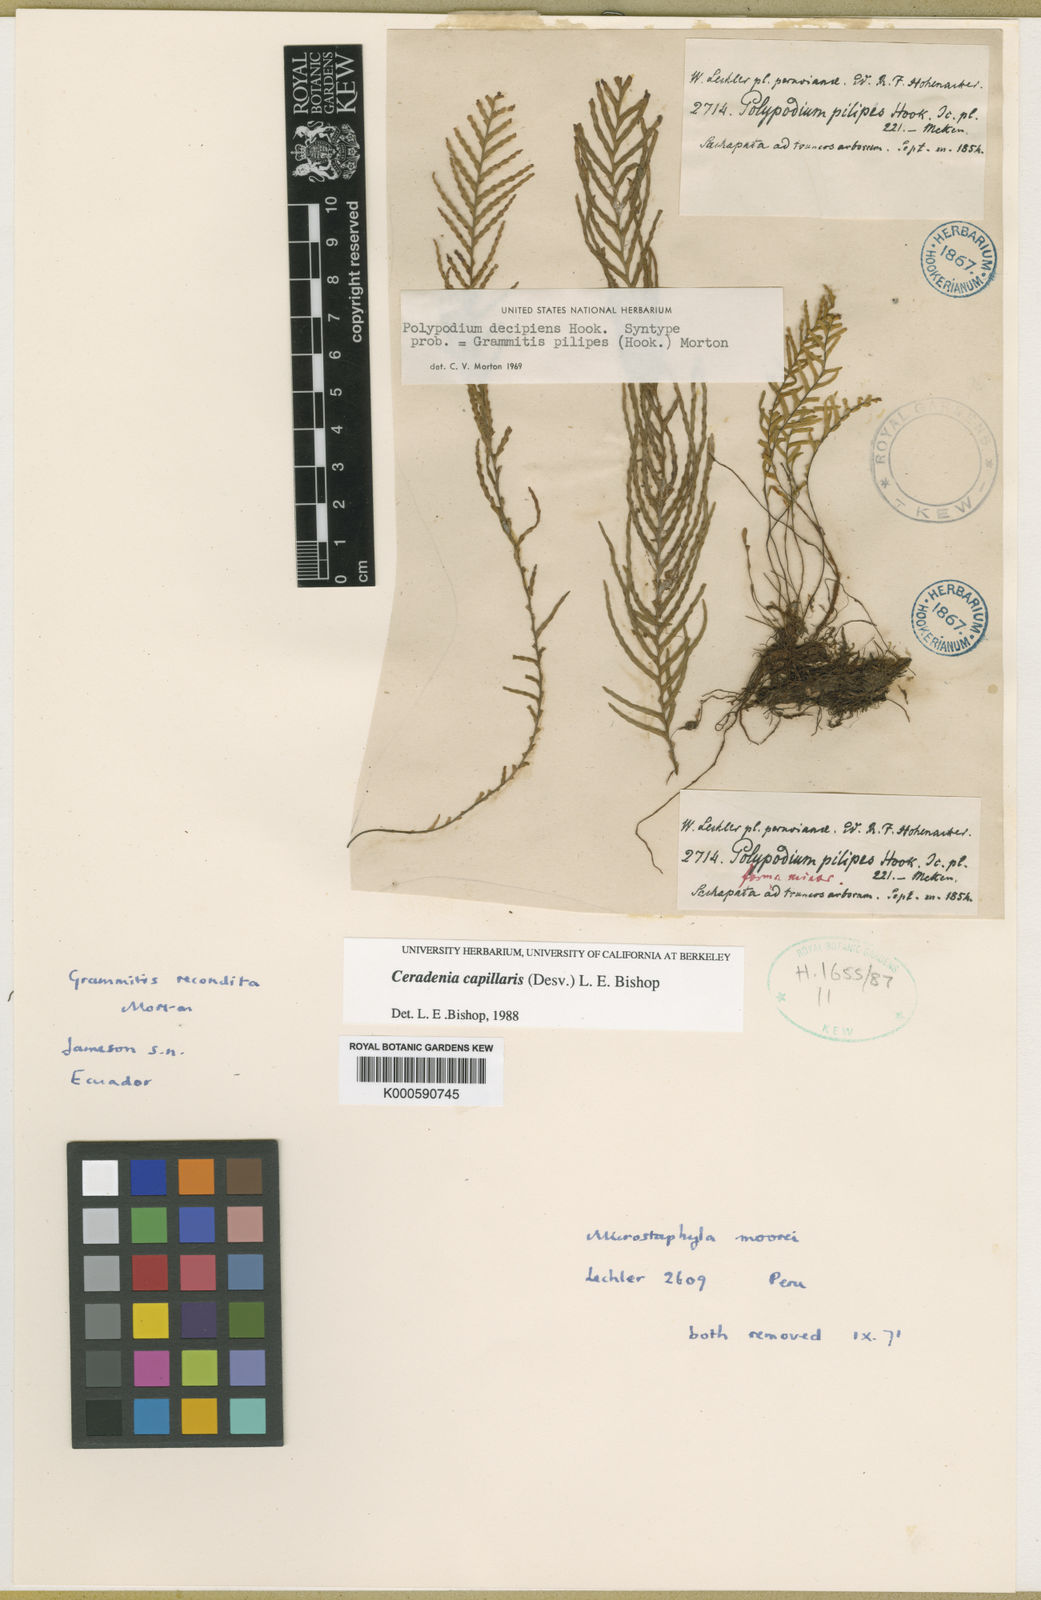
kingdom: Plantae
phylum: Tracheophyta
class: Polypodiopsida
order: Polypodiales
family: Polypodiaceae
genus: Ceradenia
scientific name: Ceradenia capillaris
